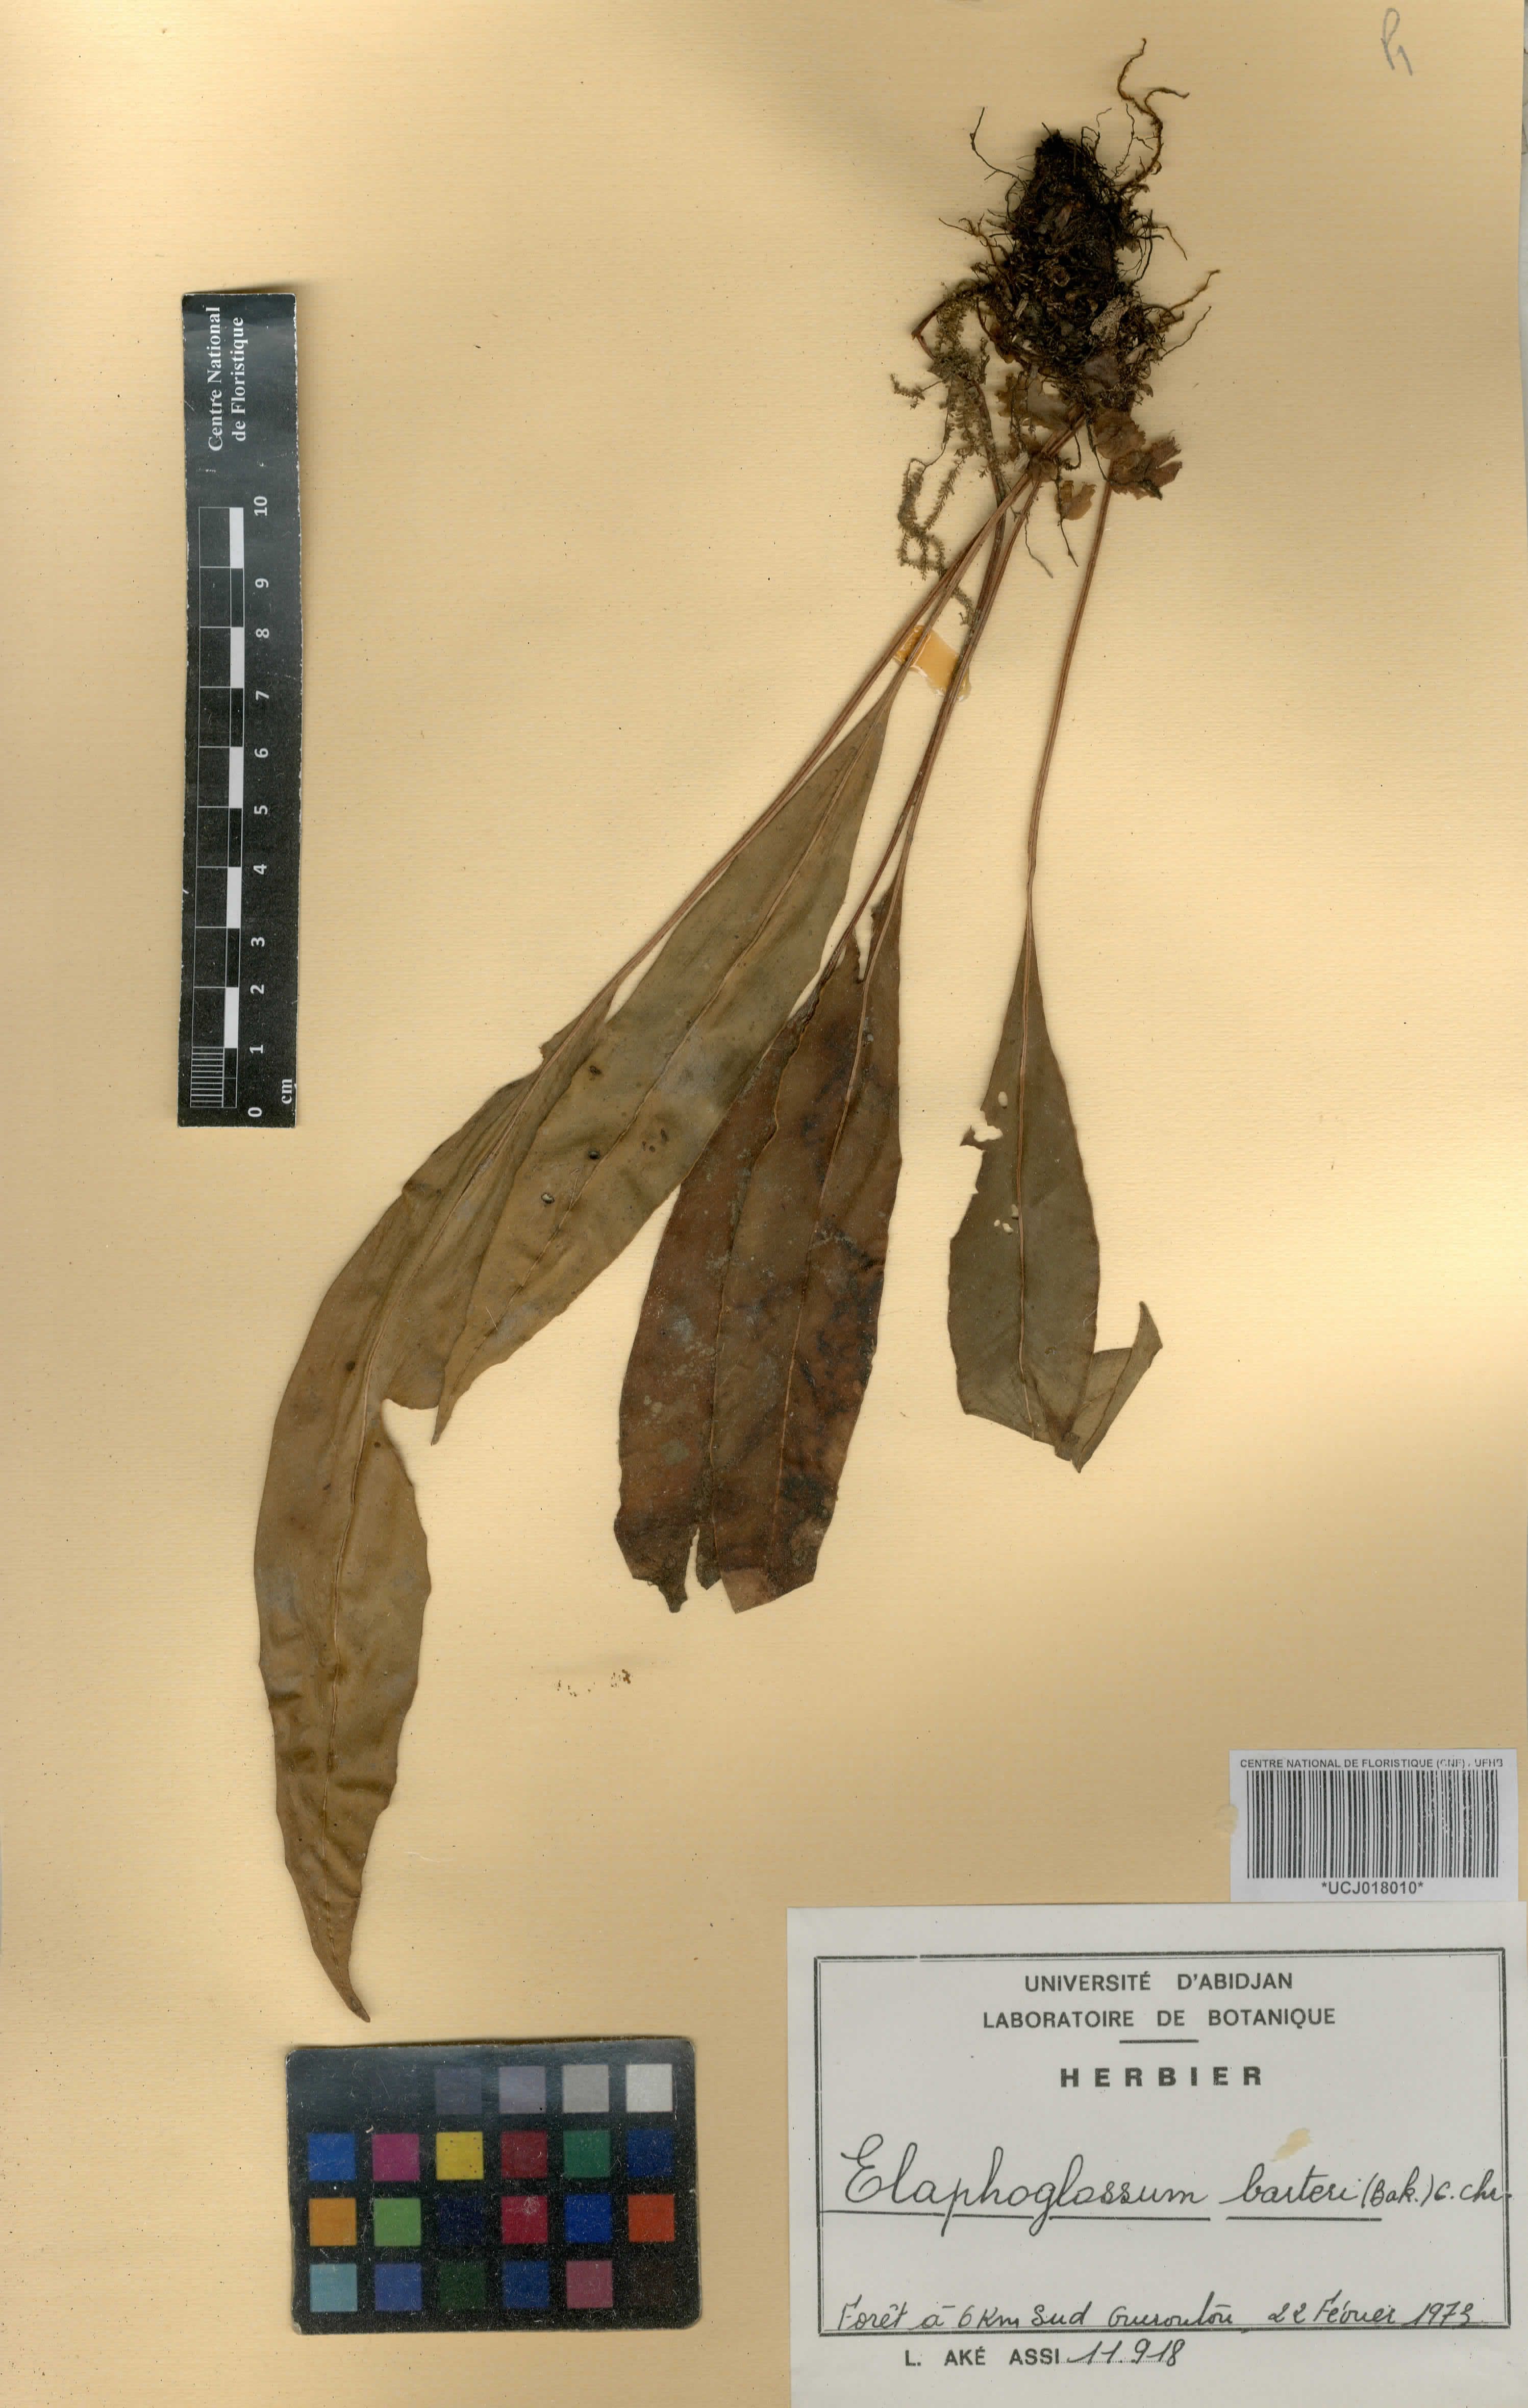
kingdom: Plantae
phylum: Tracheophyta
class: Polypodiopsida
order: Polypodiales
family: Dryopteridaceae
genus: Elaphoglossum
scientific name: Elaphoglossum barteri
